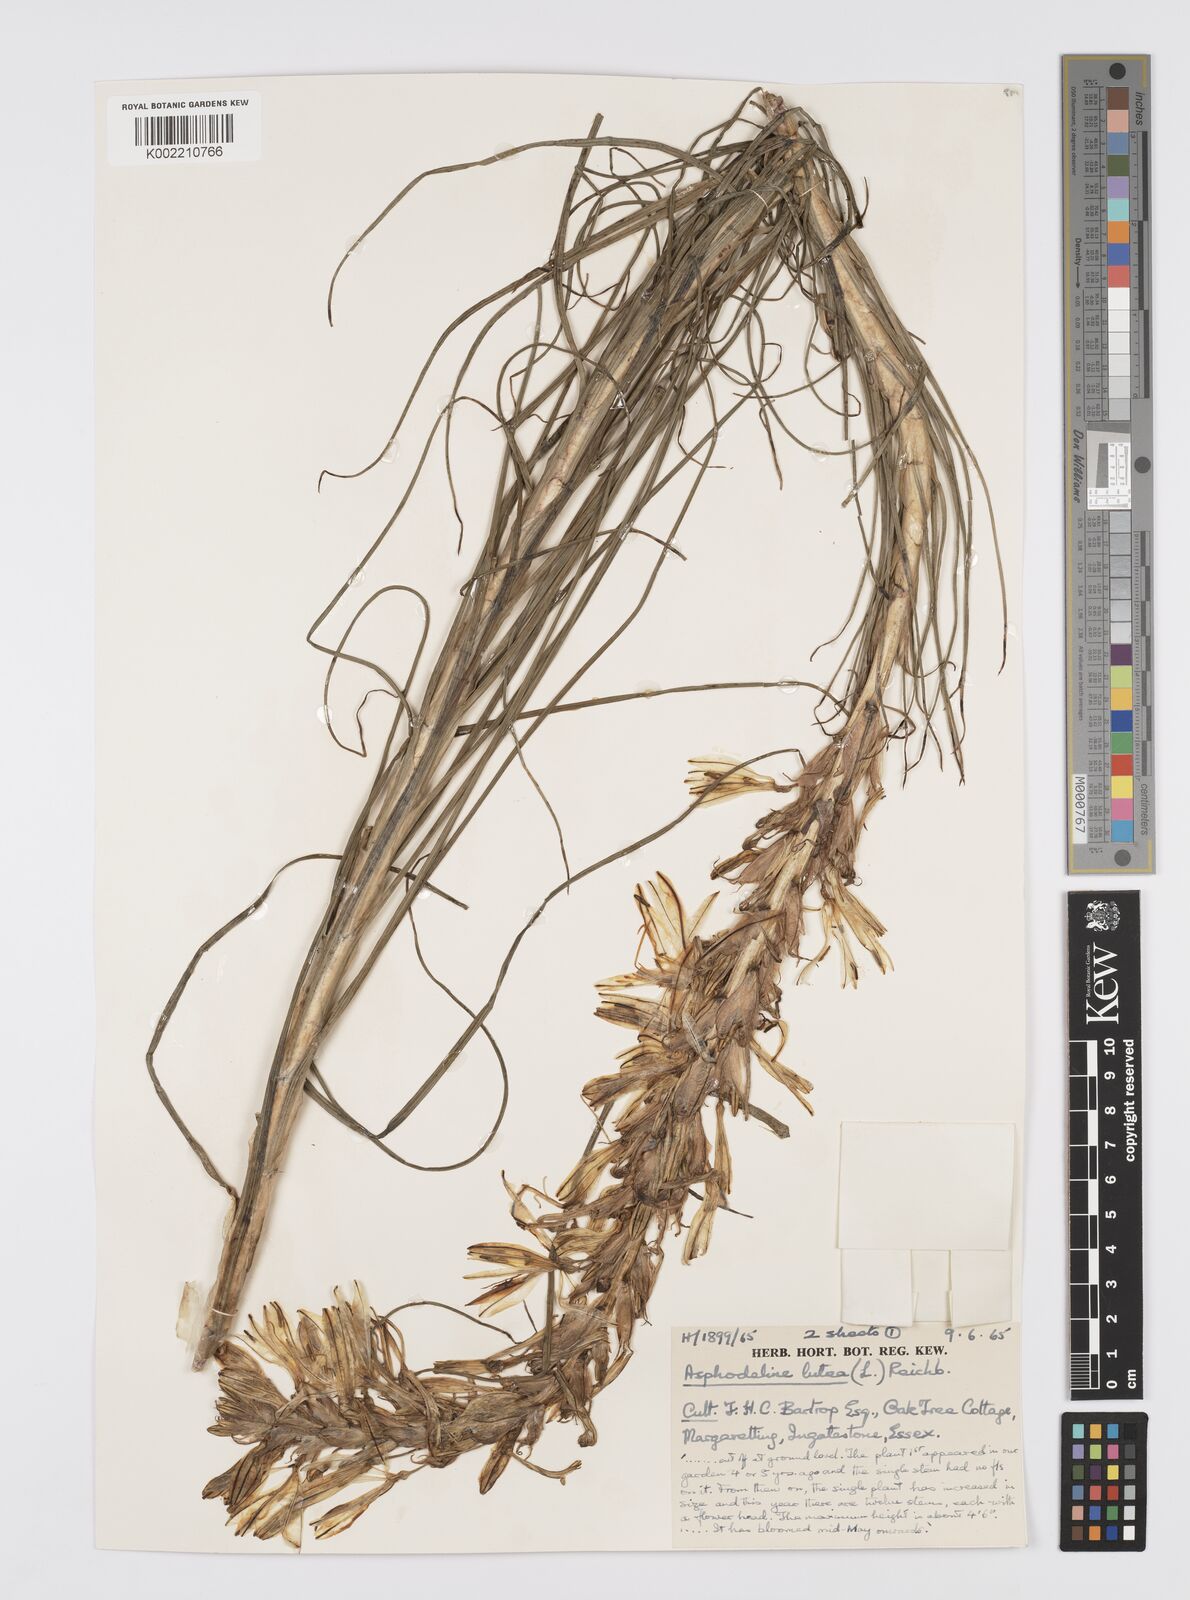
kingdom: Plantae
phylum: Tracheophyta
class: Liliopsida
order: Asparagales
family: Asphodelaceae
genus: Asphodeline
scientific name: Asphodeline lutea
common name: Yellow asphodel
